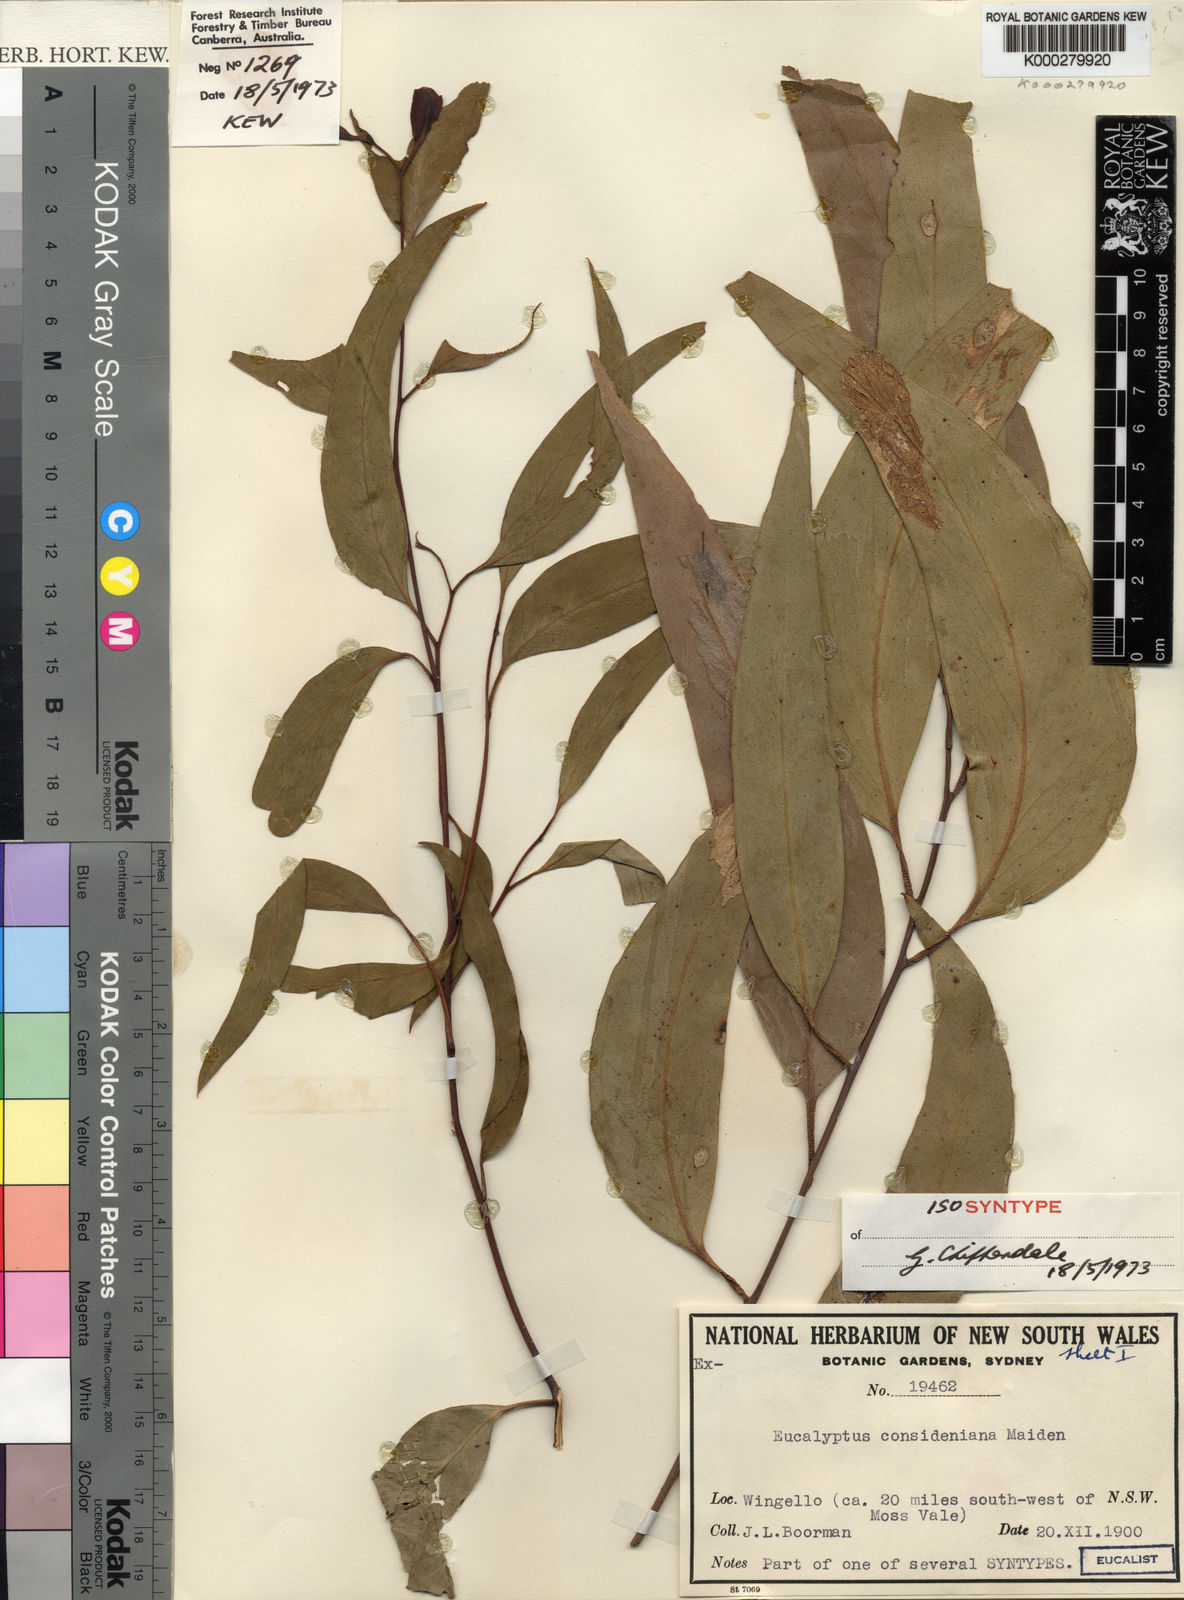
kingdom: Plantae
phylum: Tracheophyta
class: Magnoliopsida
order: Myrtales
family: Myrtaceae
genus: Eucalyptus
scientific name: Eucalyptus consideniana
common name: Prickly stringybark
